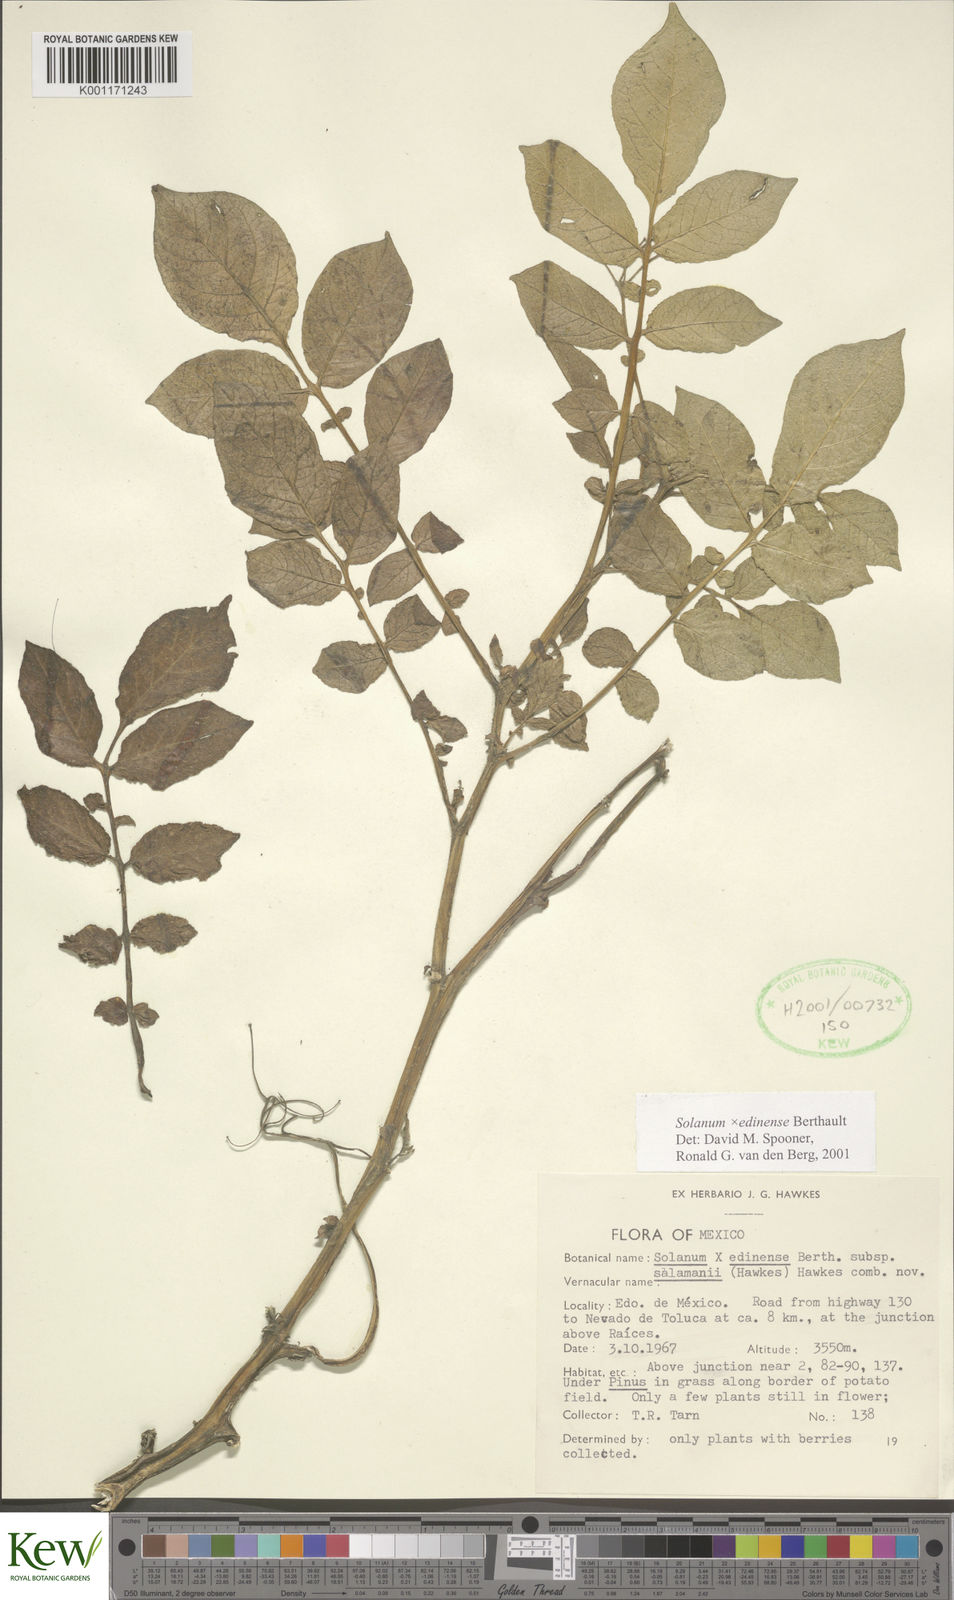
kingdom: Plantae
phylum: Tracheophyta
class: Magnoliopsida
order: Solanales
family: Solanaceae
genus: Solanum
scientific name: Solanum edinense
